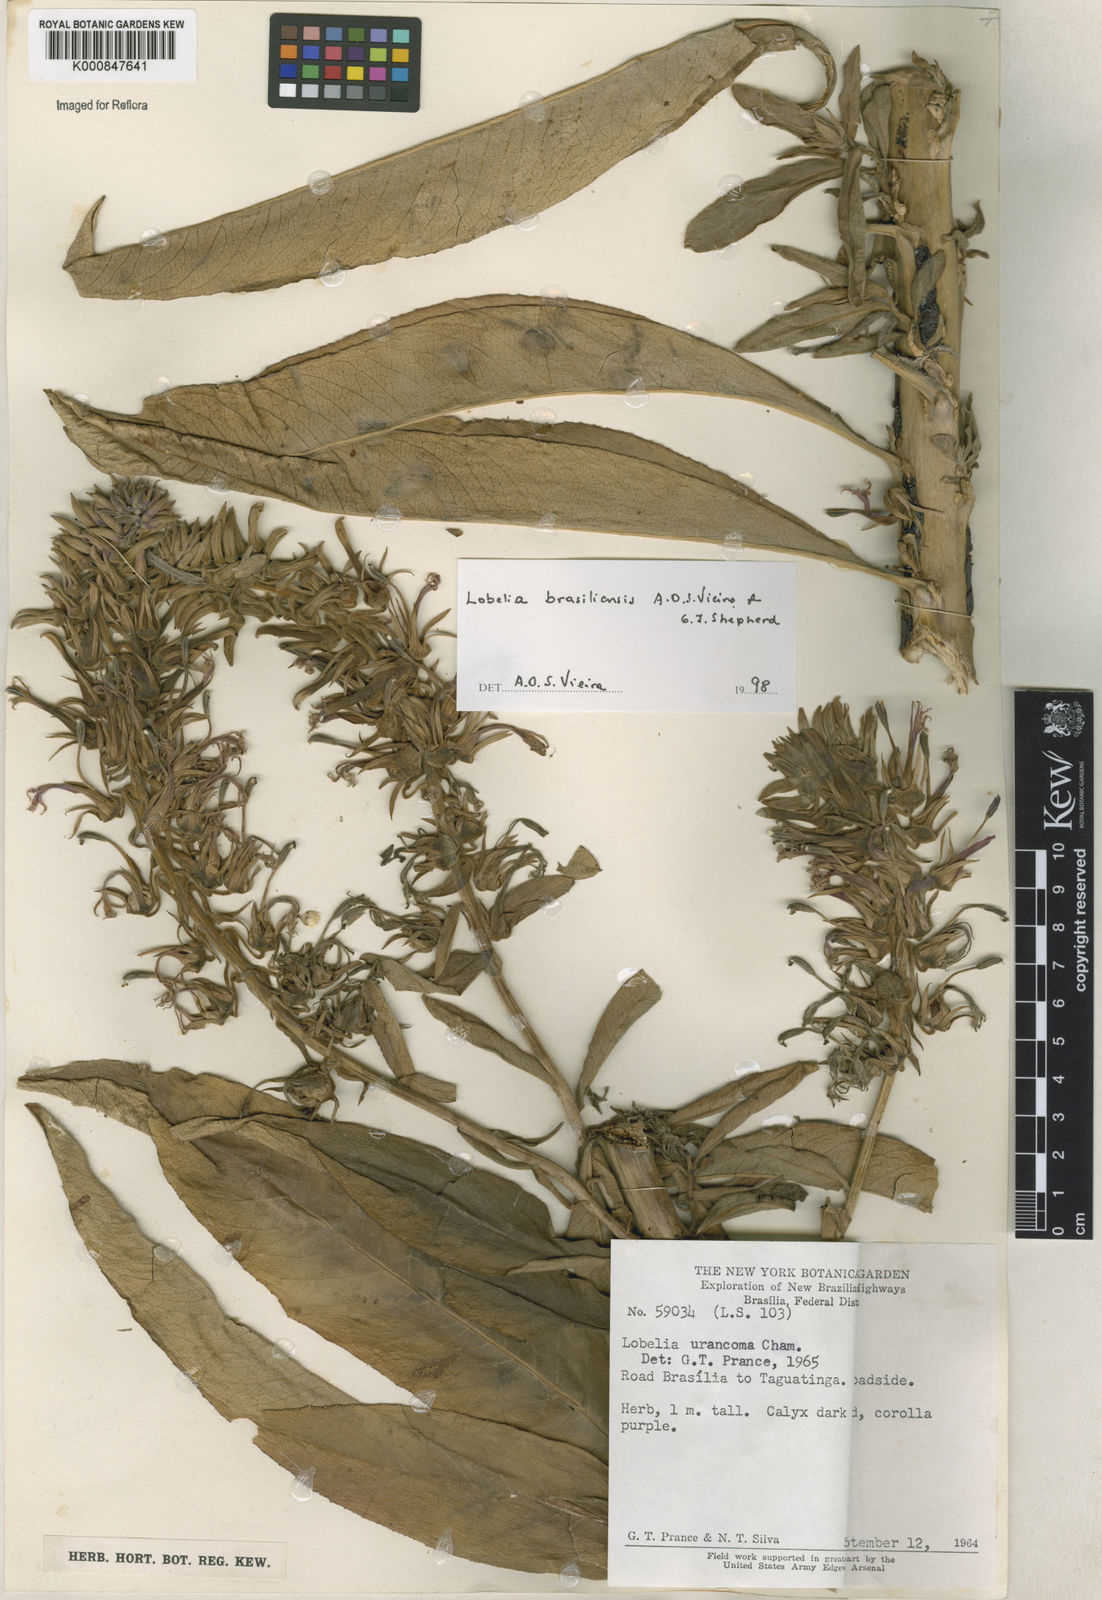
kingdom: Plantae
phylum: Tracheophyta
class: Magnoliopsida
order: Asterales
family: Campanulaceae
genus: Lobelia
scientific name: Lobelia brasiliensis
